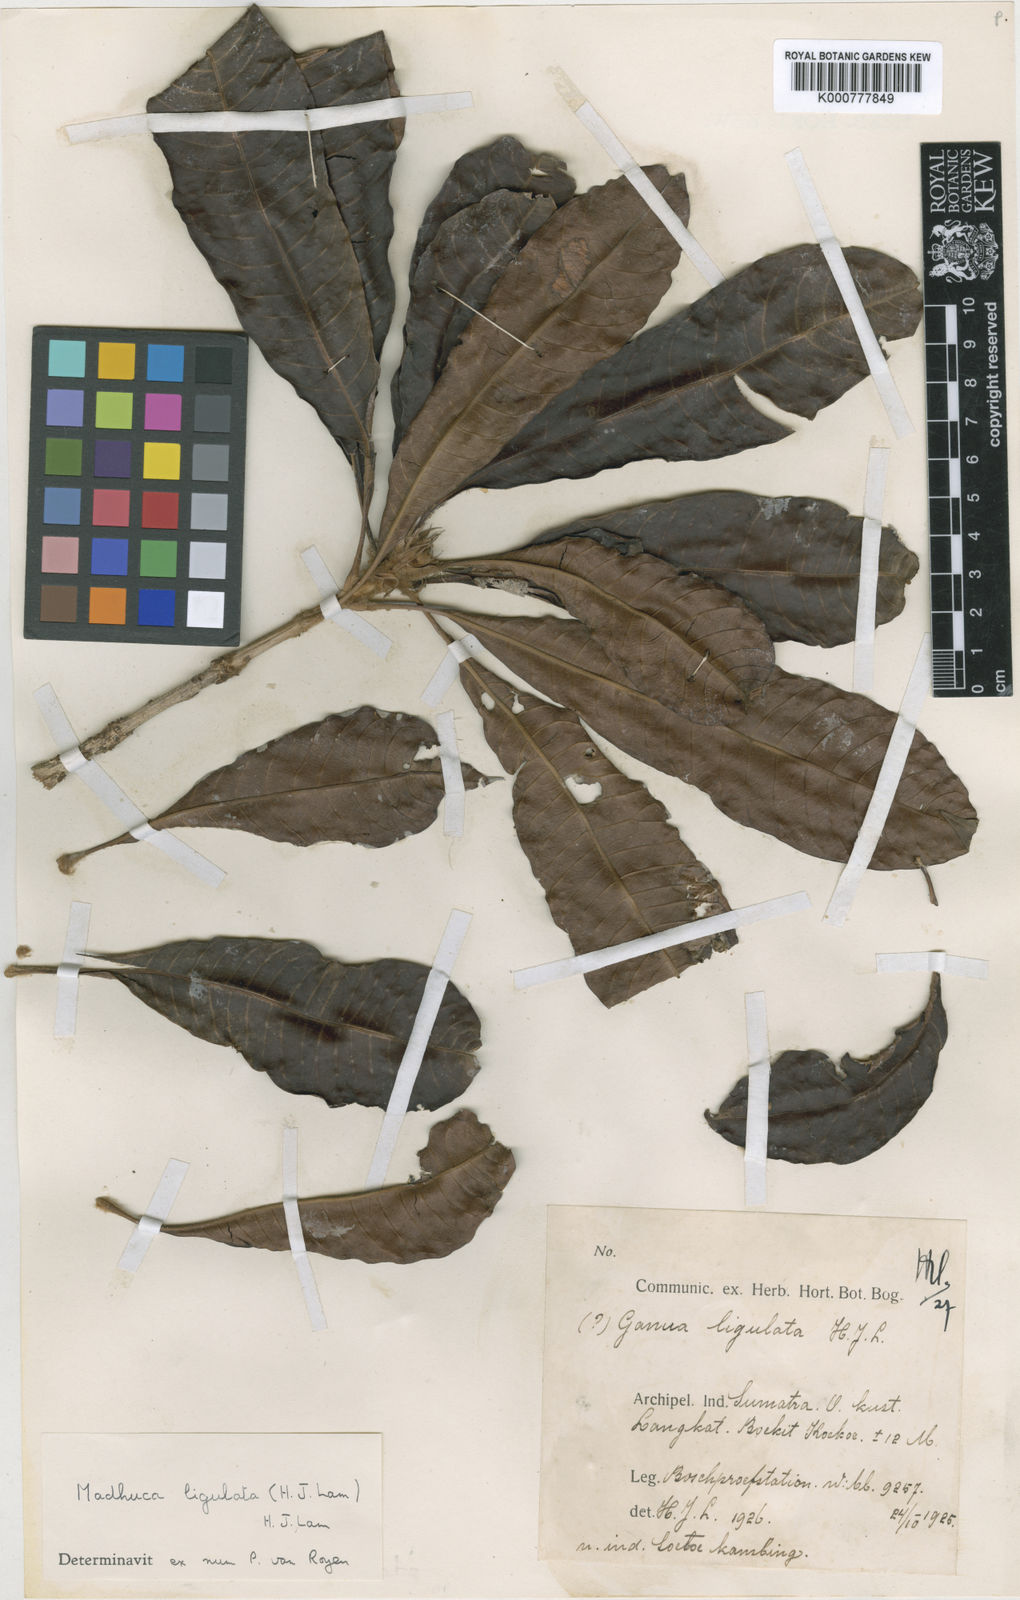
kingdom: Plantae
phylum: Tracheophyta
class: Magnoliopsida
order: Ericales
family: Sapotaceae
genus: Madhuca
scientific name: Madhuca ligulata
